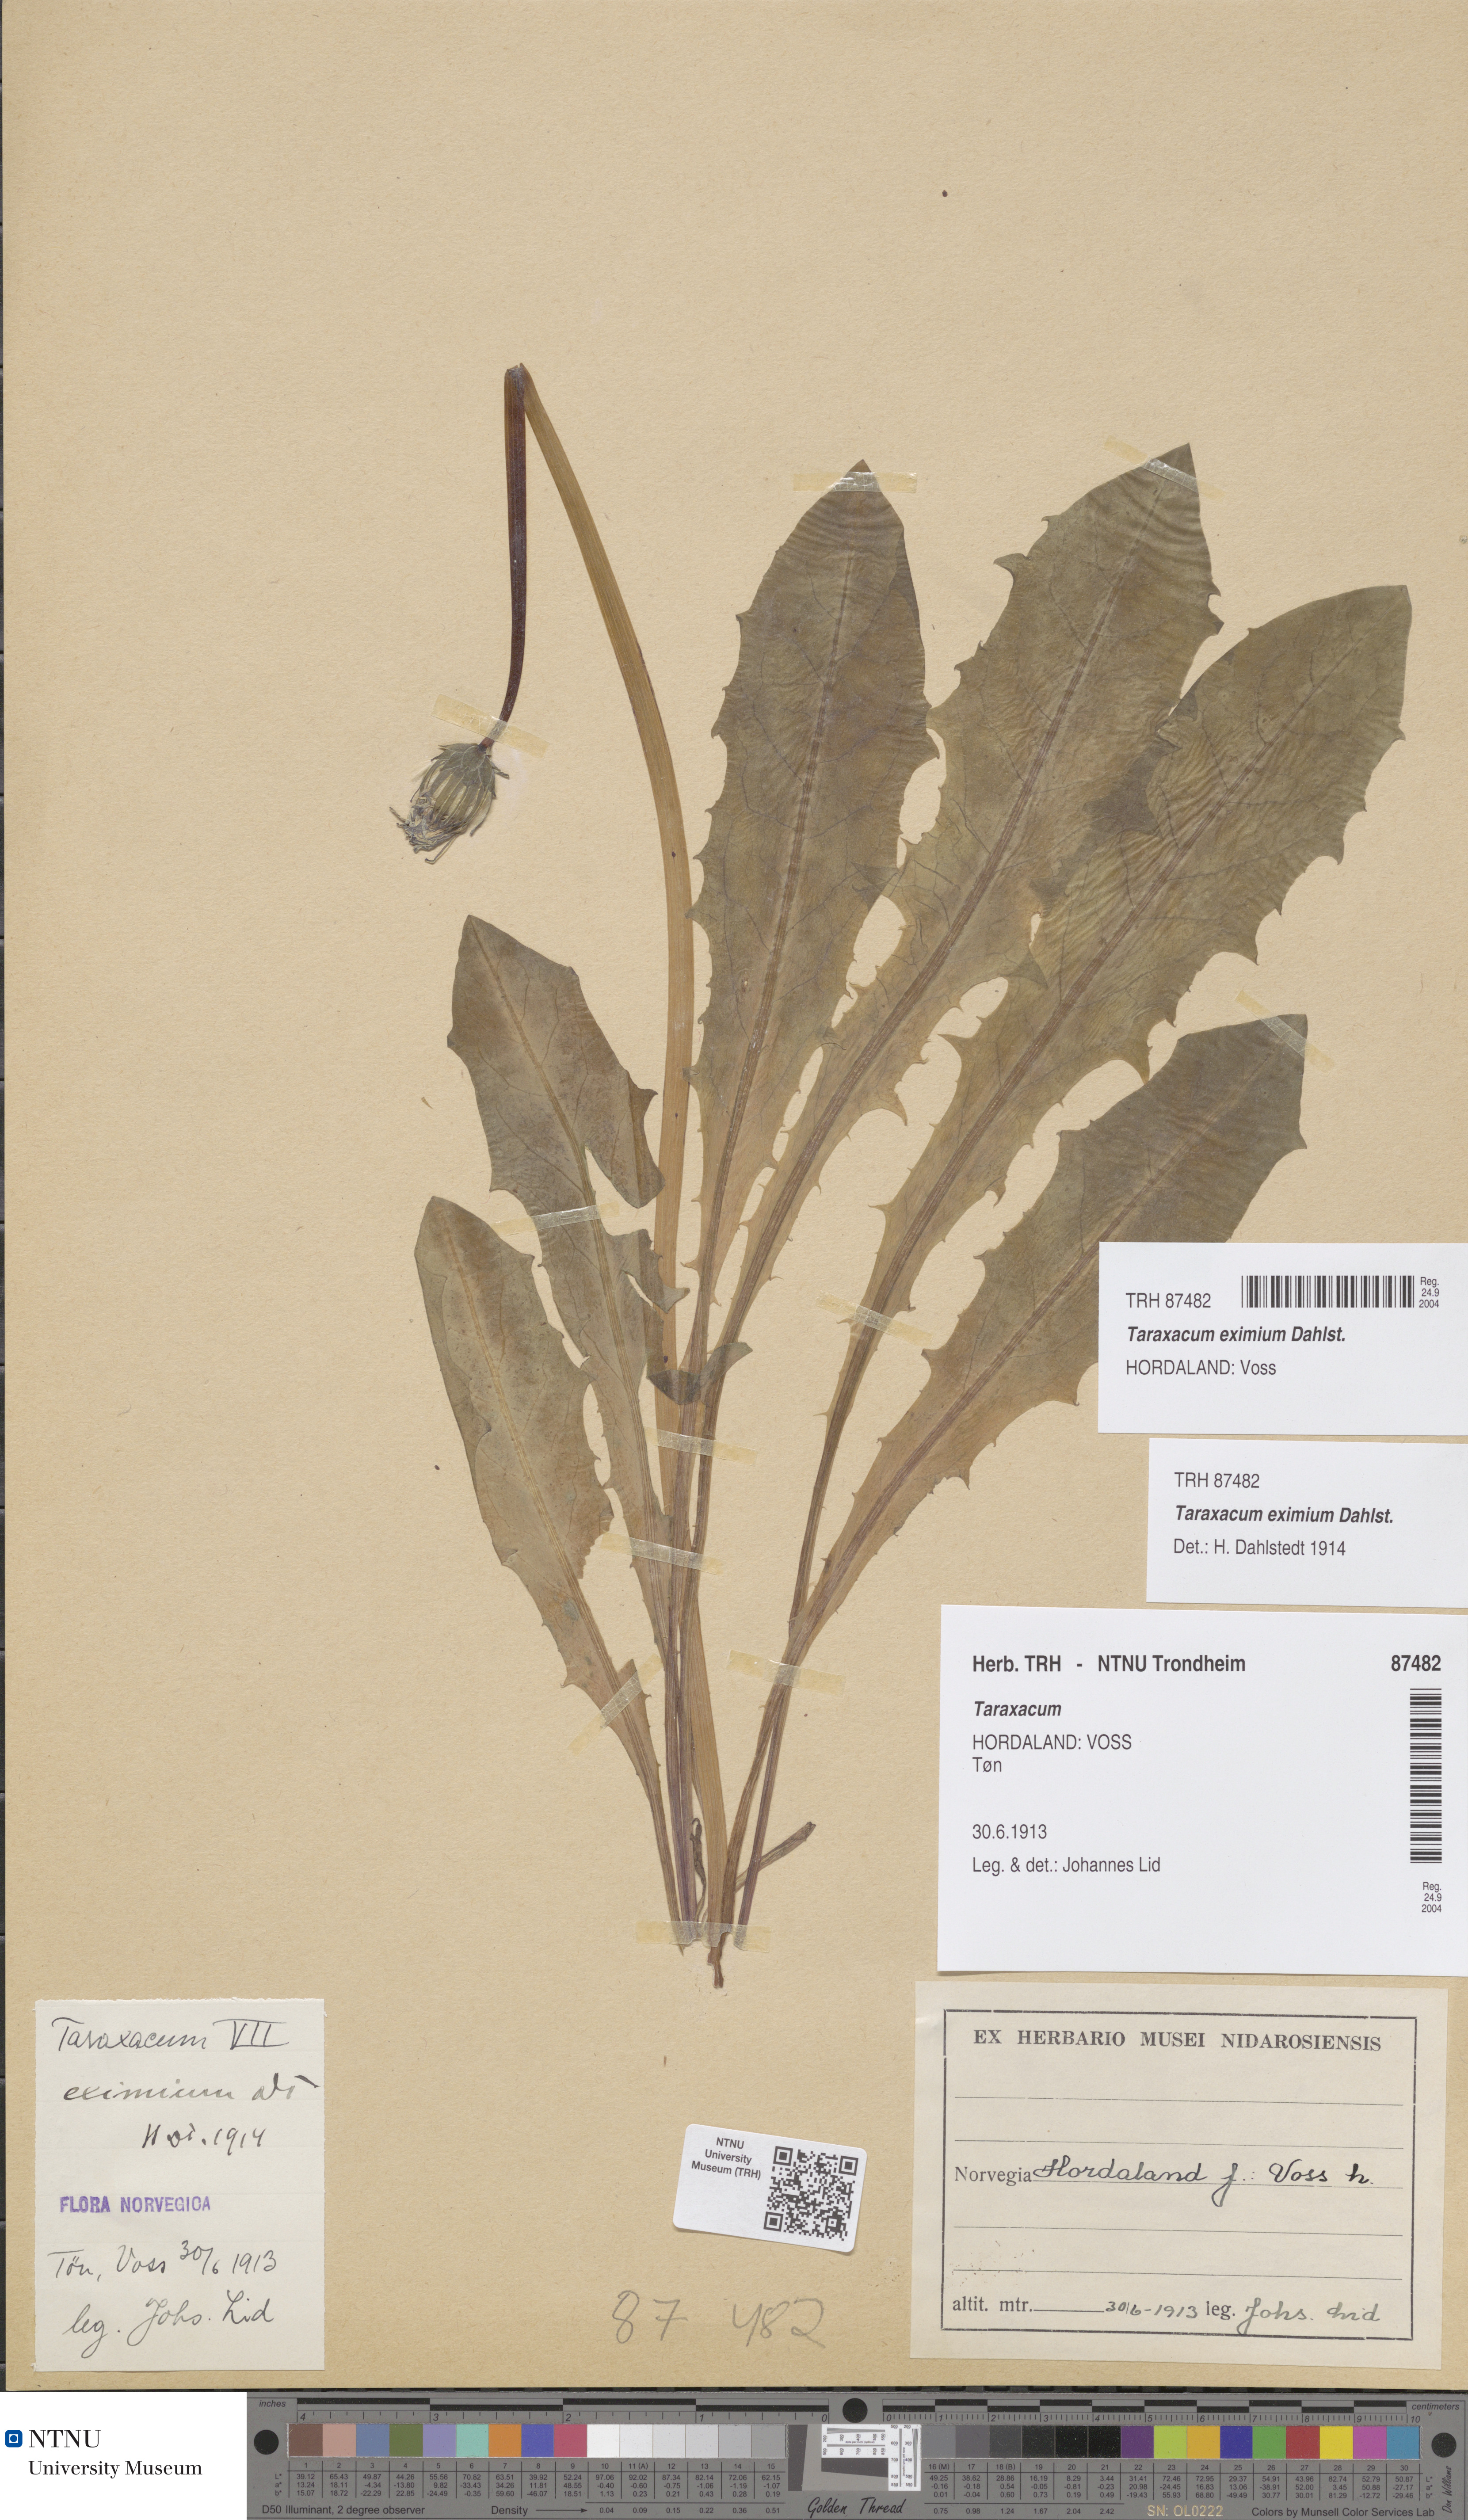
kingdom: Plantae
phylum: Tracheophyta
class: Magnoliopsida
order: Asterales
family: Asteraceae
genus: Taraxacum
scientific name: Taraxacum eximium
